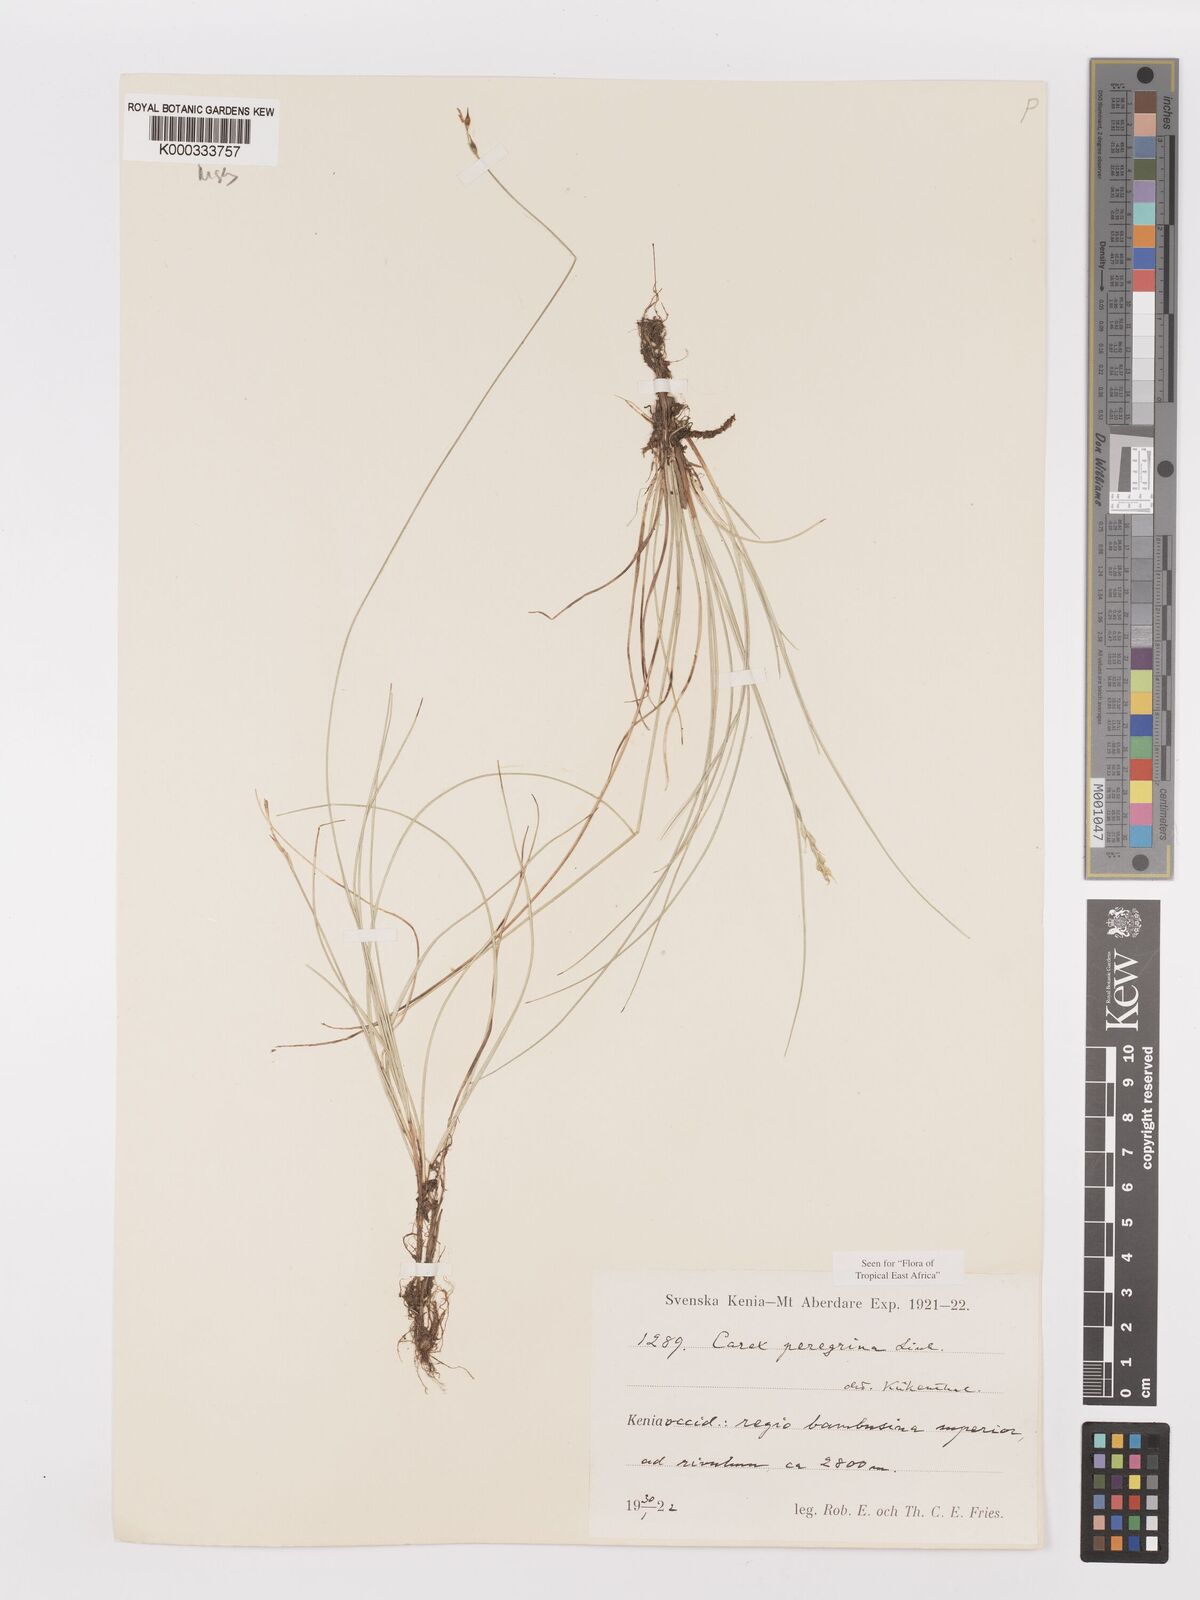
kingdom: Plantae
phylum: Tracheophyta
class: Liliopsida
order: Poales
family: Cyperaceae
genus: Carex
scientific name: Carex peregrina
